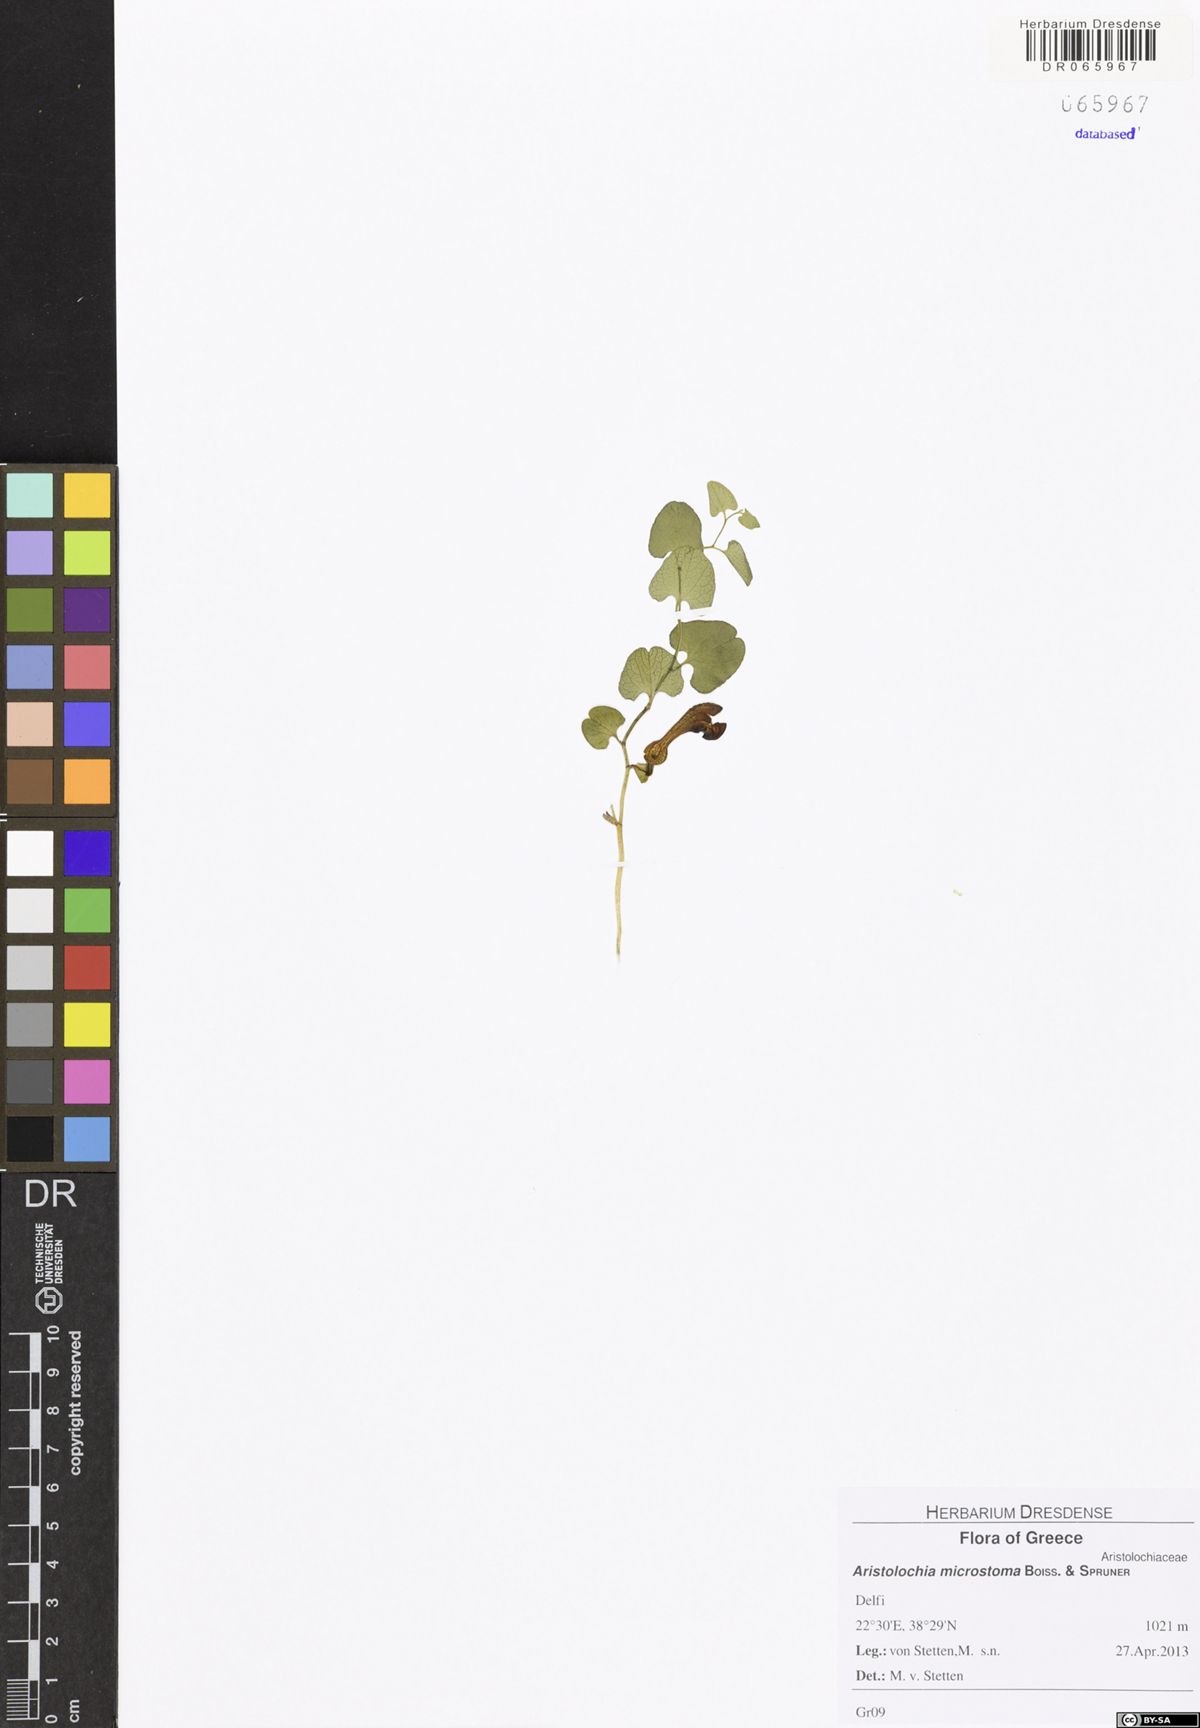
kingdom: Plantae
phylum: Tracheophyta
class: Magnoliopsida
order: Piperales
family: Aristolochiaceae
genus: Aristolochia
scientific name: Aristolochia microstoma
